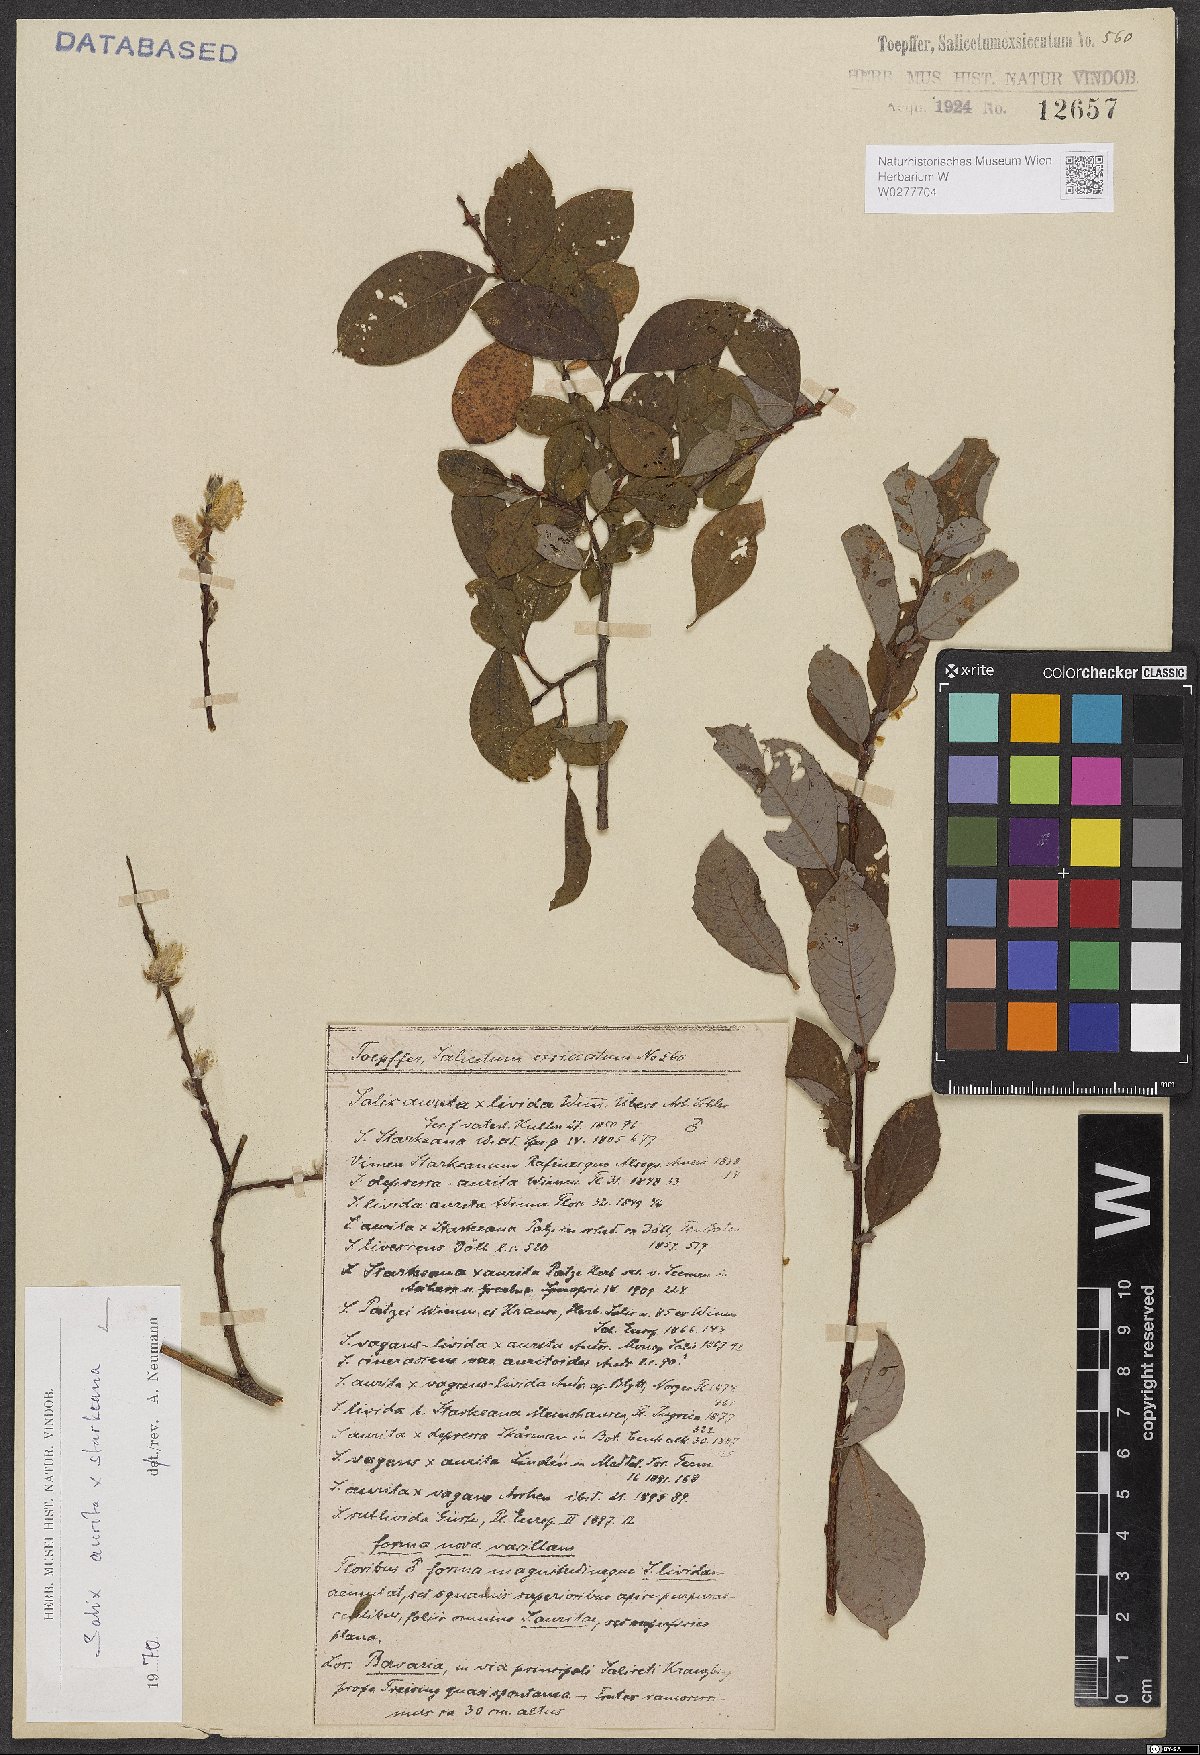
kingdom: Plantae
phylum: Tracheophyta
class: Magnoliopsida
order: Malpighiales
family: Salicaceae
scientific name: Salicaceae
